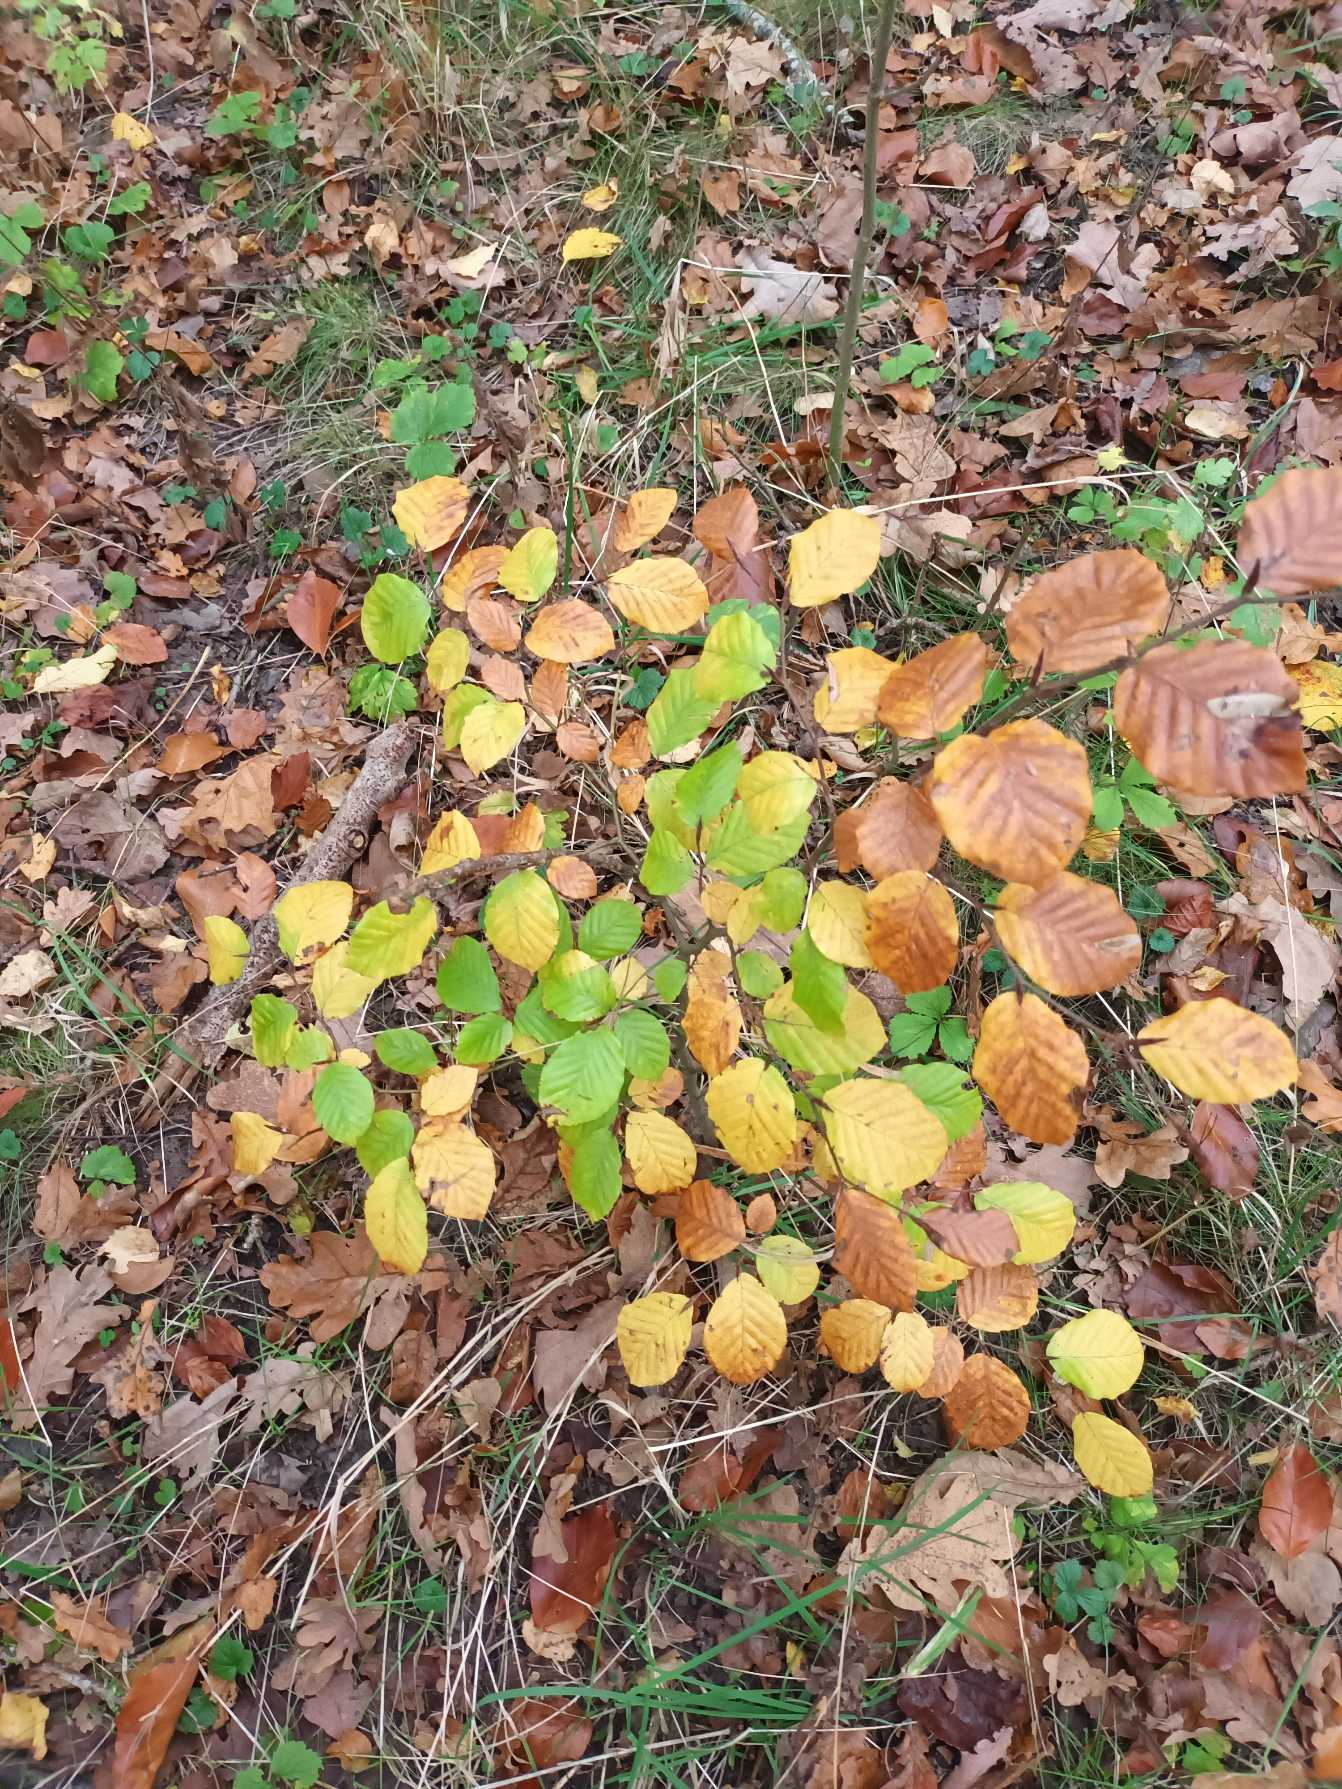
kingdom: Plantae
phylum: Tracheophyta
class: Magnoliopsida
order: Fagales
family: Fagaceae
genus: Fagus
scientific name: Fagus sylvatica
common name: Bøg
